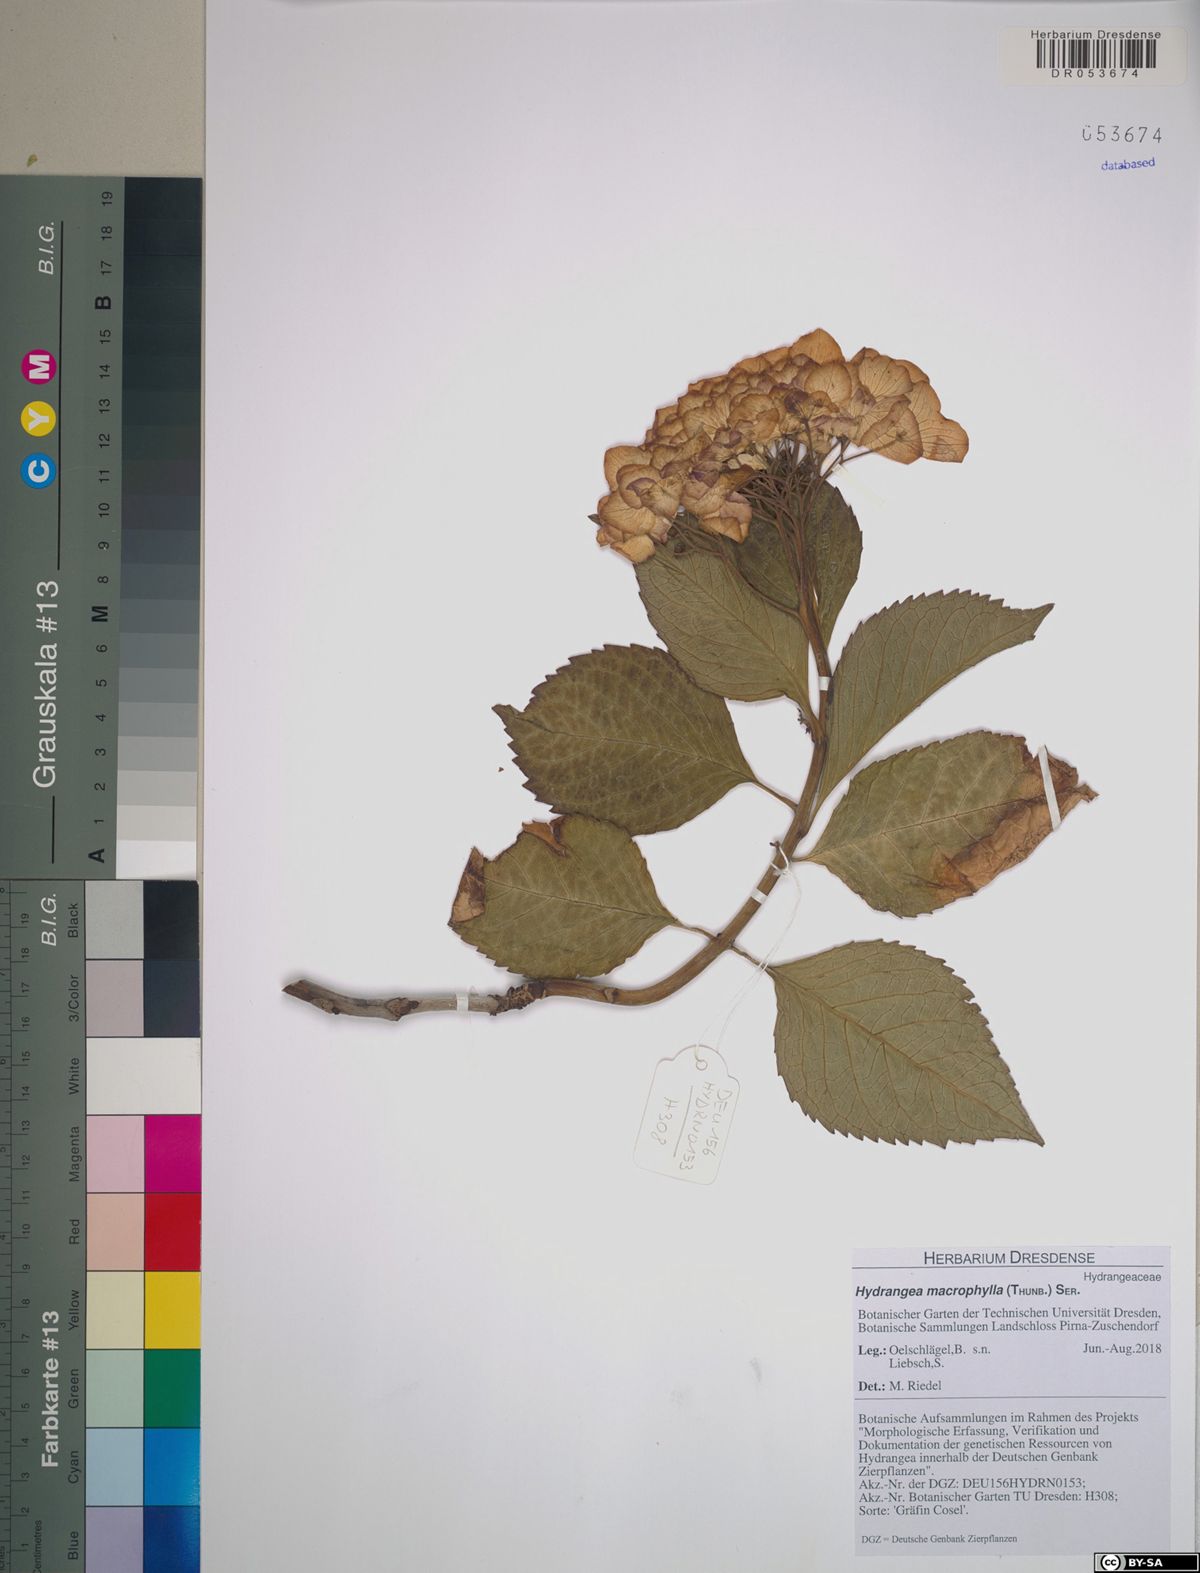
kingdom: Plantae
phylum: Tracheophyta
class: Magnoliopsida
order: Cornales
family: Hydrangeaceae
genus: Hydrangea
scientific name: Hydrangea macrophylla
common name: Hydrangea
